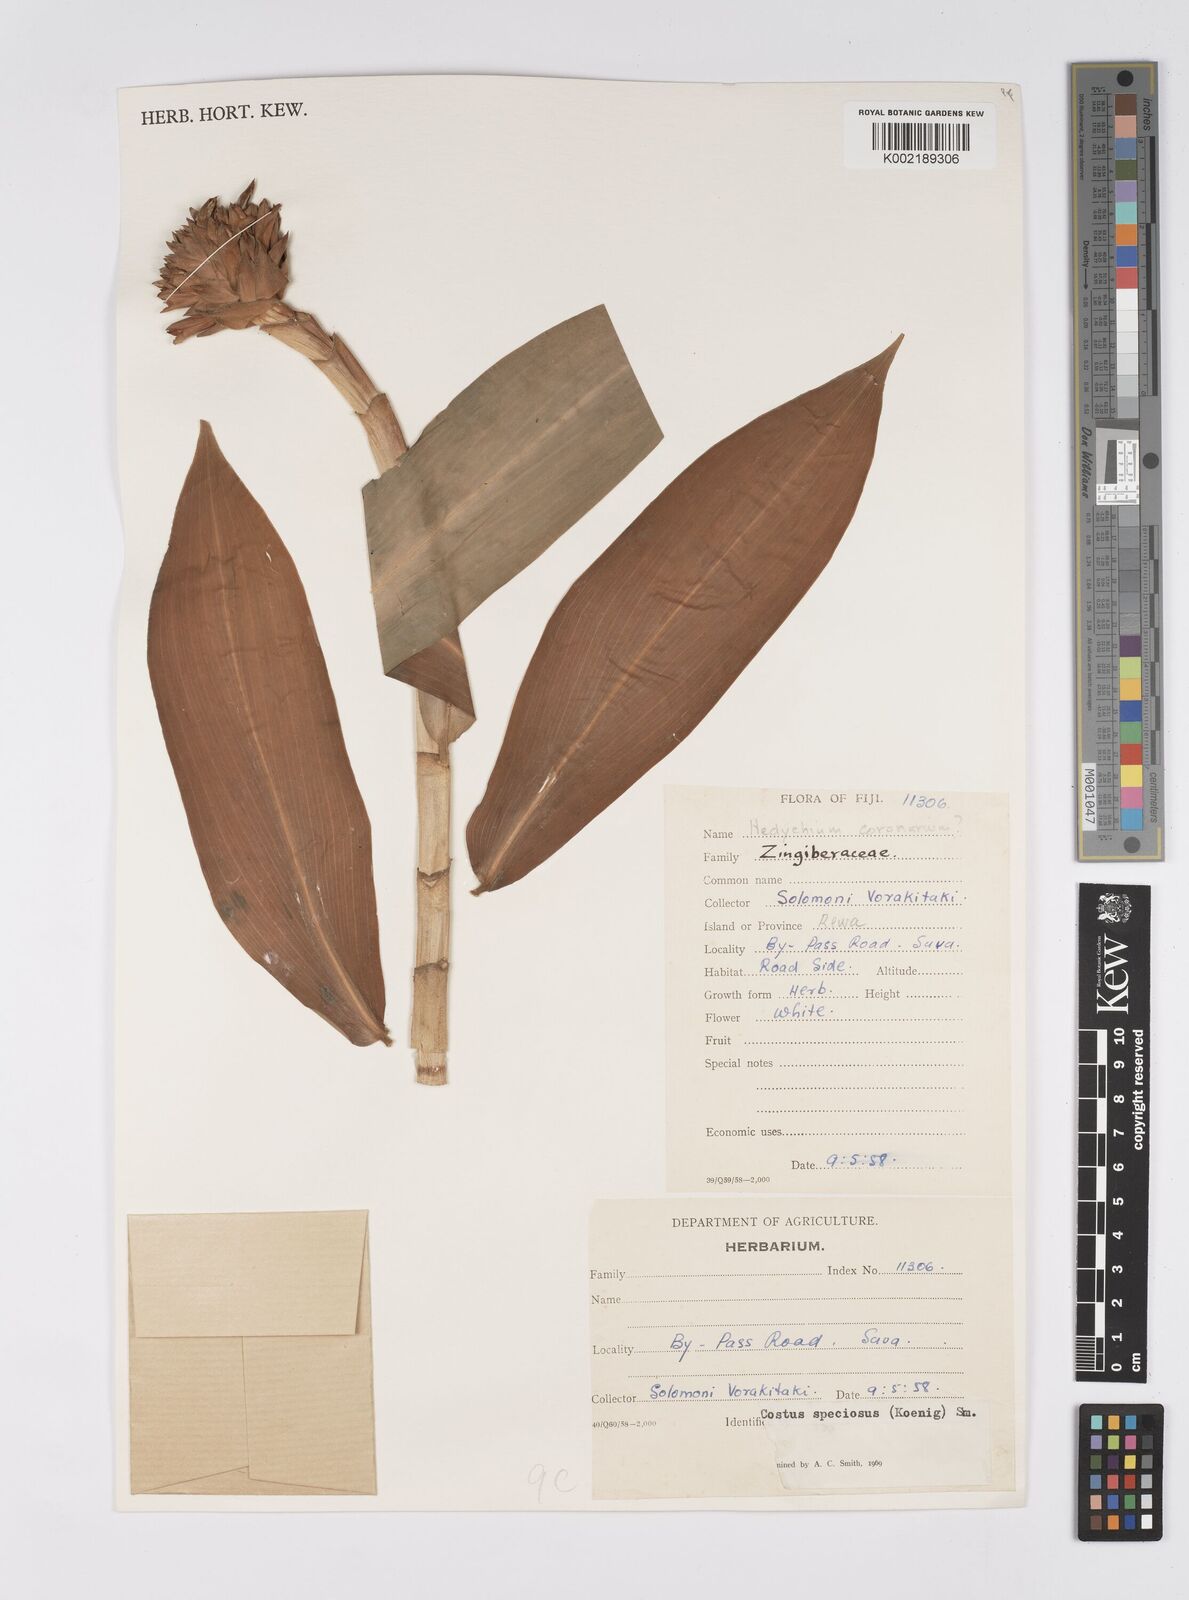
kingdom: Plantae
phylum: Tracheophyta
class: Liliopsida
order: Zingiberales
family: Costaceae
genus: Hellenia
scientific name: Hellenia speciosa
